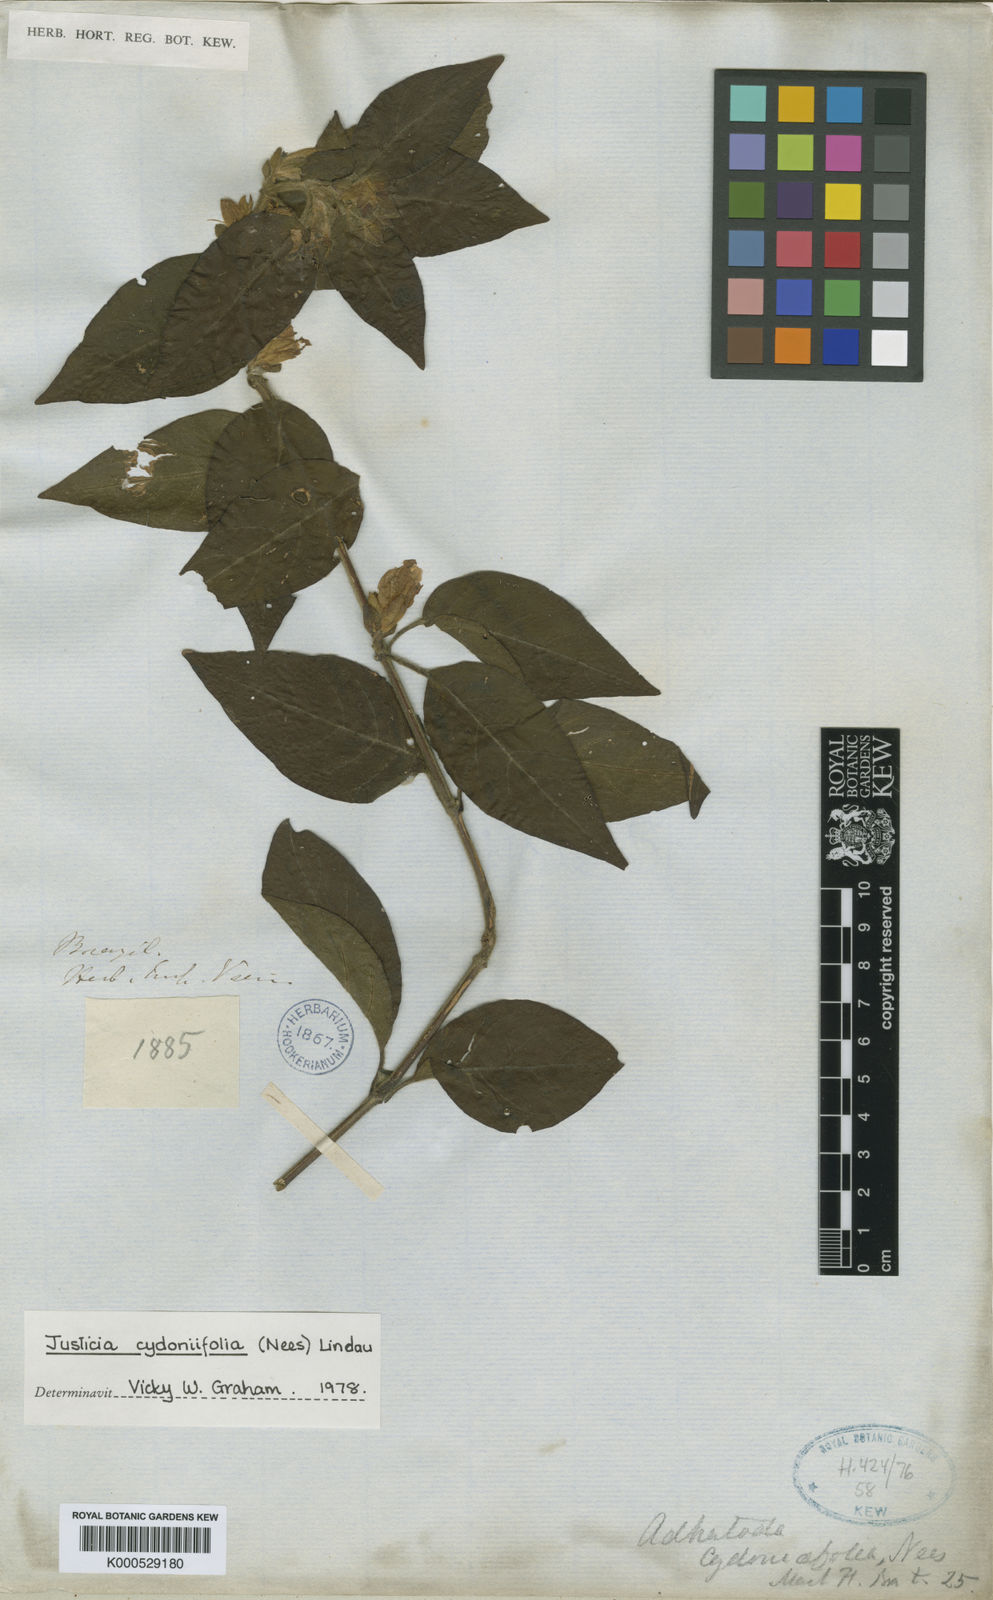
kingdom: Plantae
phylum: Tracheophyta
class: Magnoliopsida
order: Lamiales
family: Acanthaceae
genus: Justicia
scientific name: Justicia
